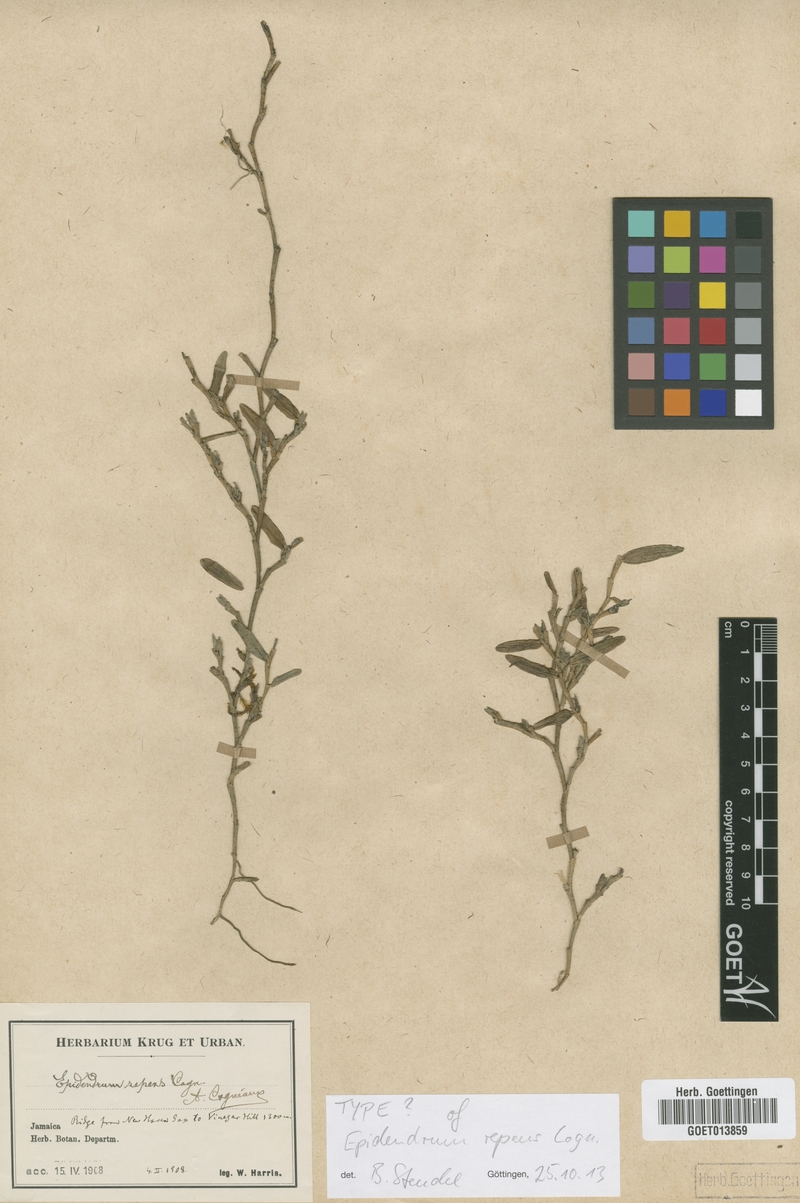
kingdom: Plantae
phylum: Tracheophyta
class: Liliopsida
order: Asparagales
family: Orchidaceae
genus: Epidendrum
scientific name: Epidendrum repens
